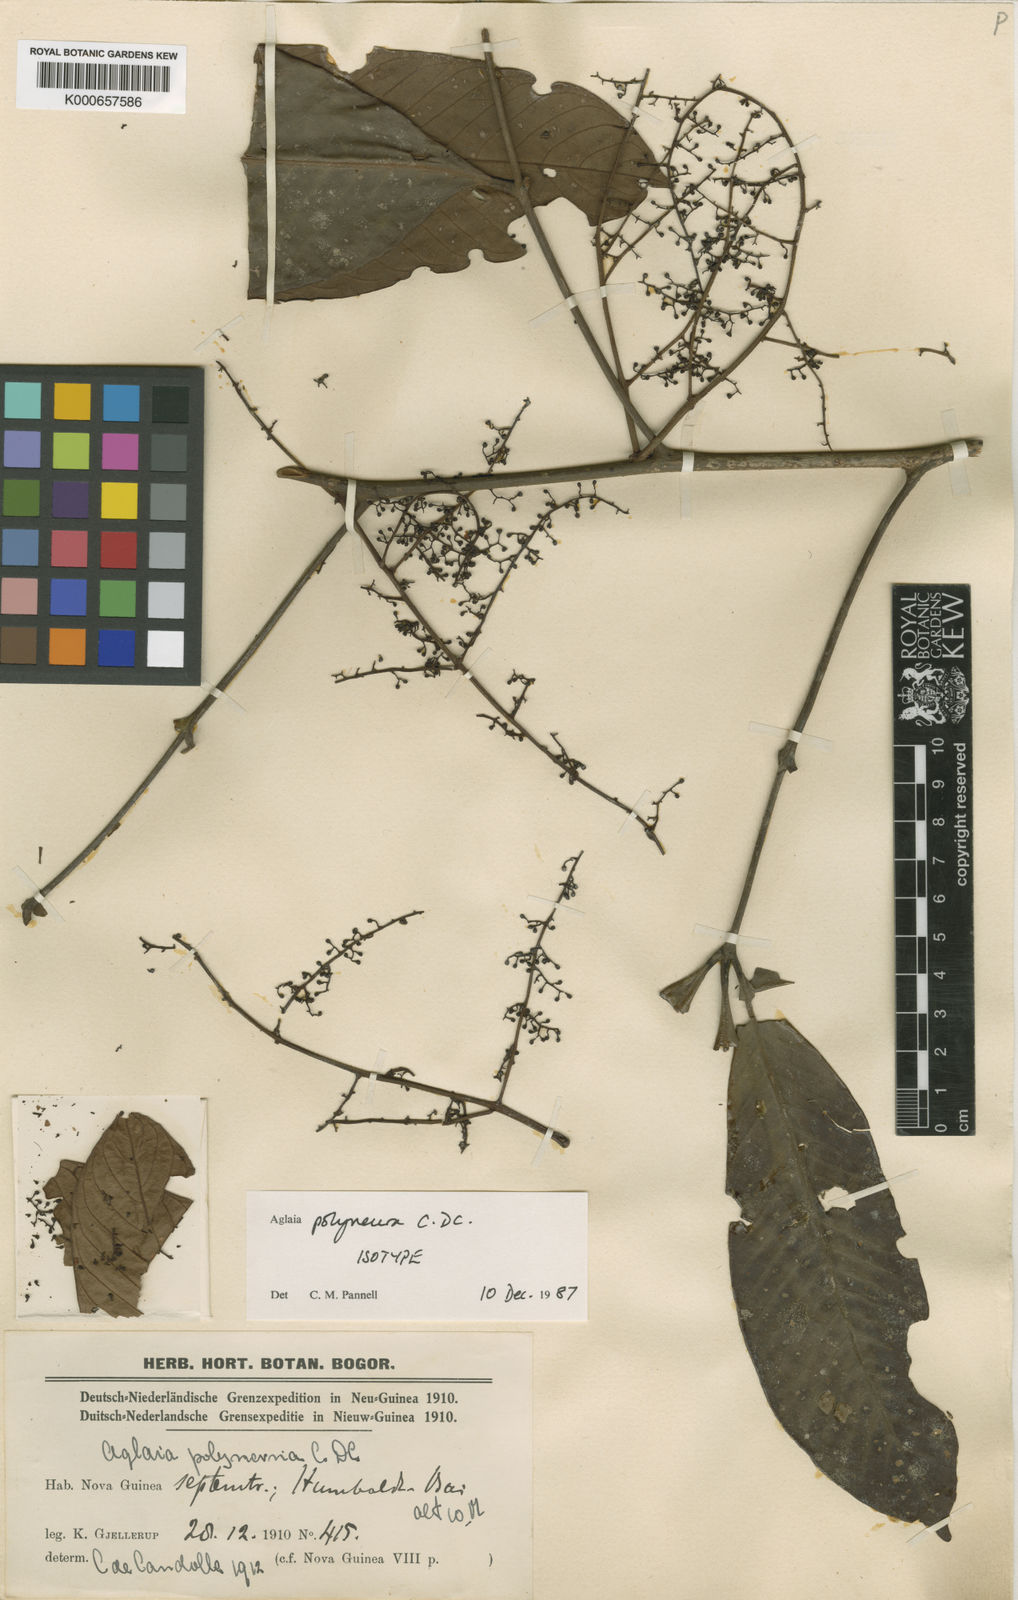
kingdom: Plantae
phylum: Tracheophyta
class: Magnoliopsida
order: Sapindales
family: Meliaceae
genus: Aglaia
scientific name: Aglaia polyneura
